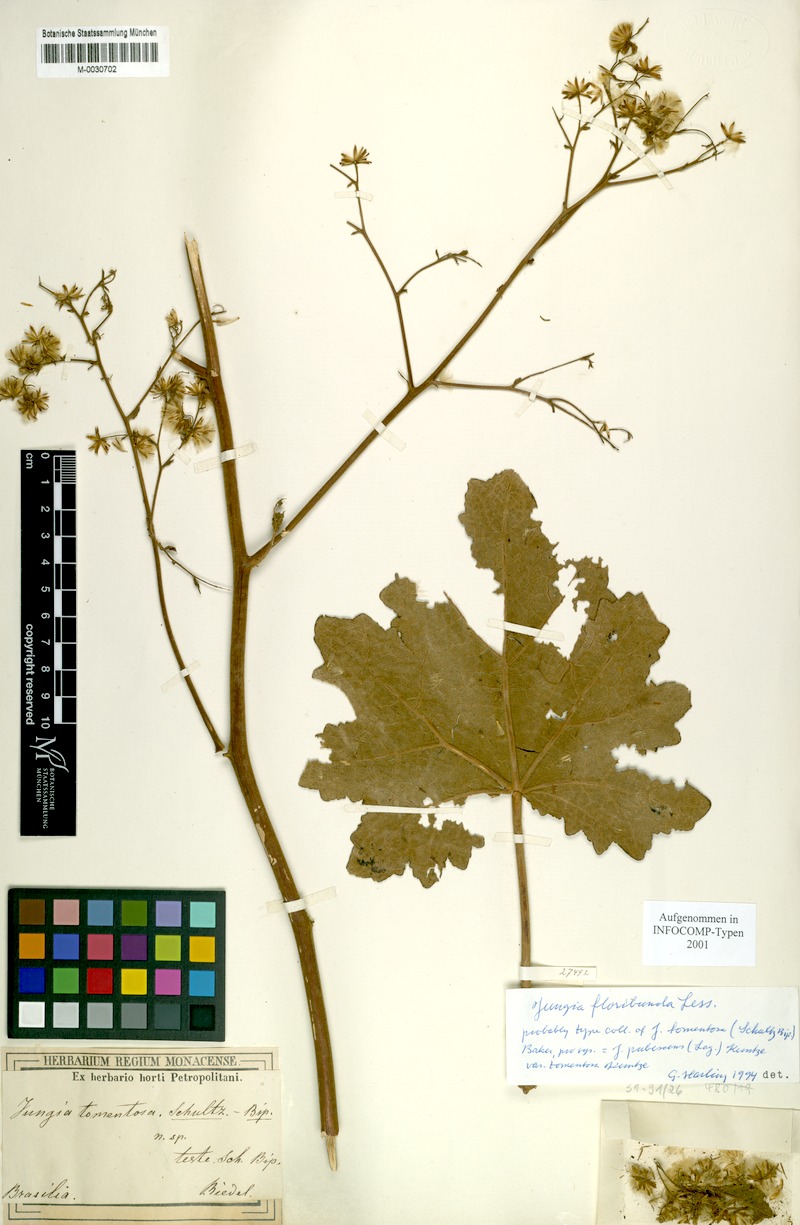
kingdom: Plantae
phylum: Tracheophyta
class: Magnoliopsida
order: Asterales
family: Asteraceae
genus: Jungia
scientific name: Jungia spectabilis
